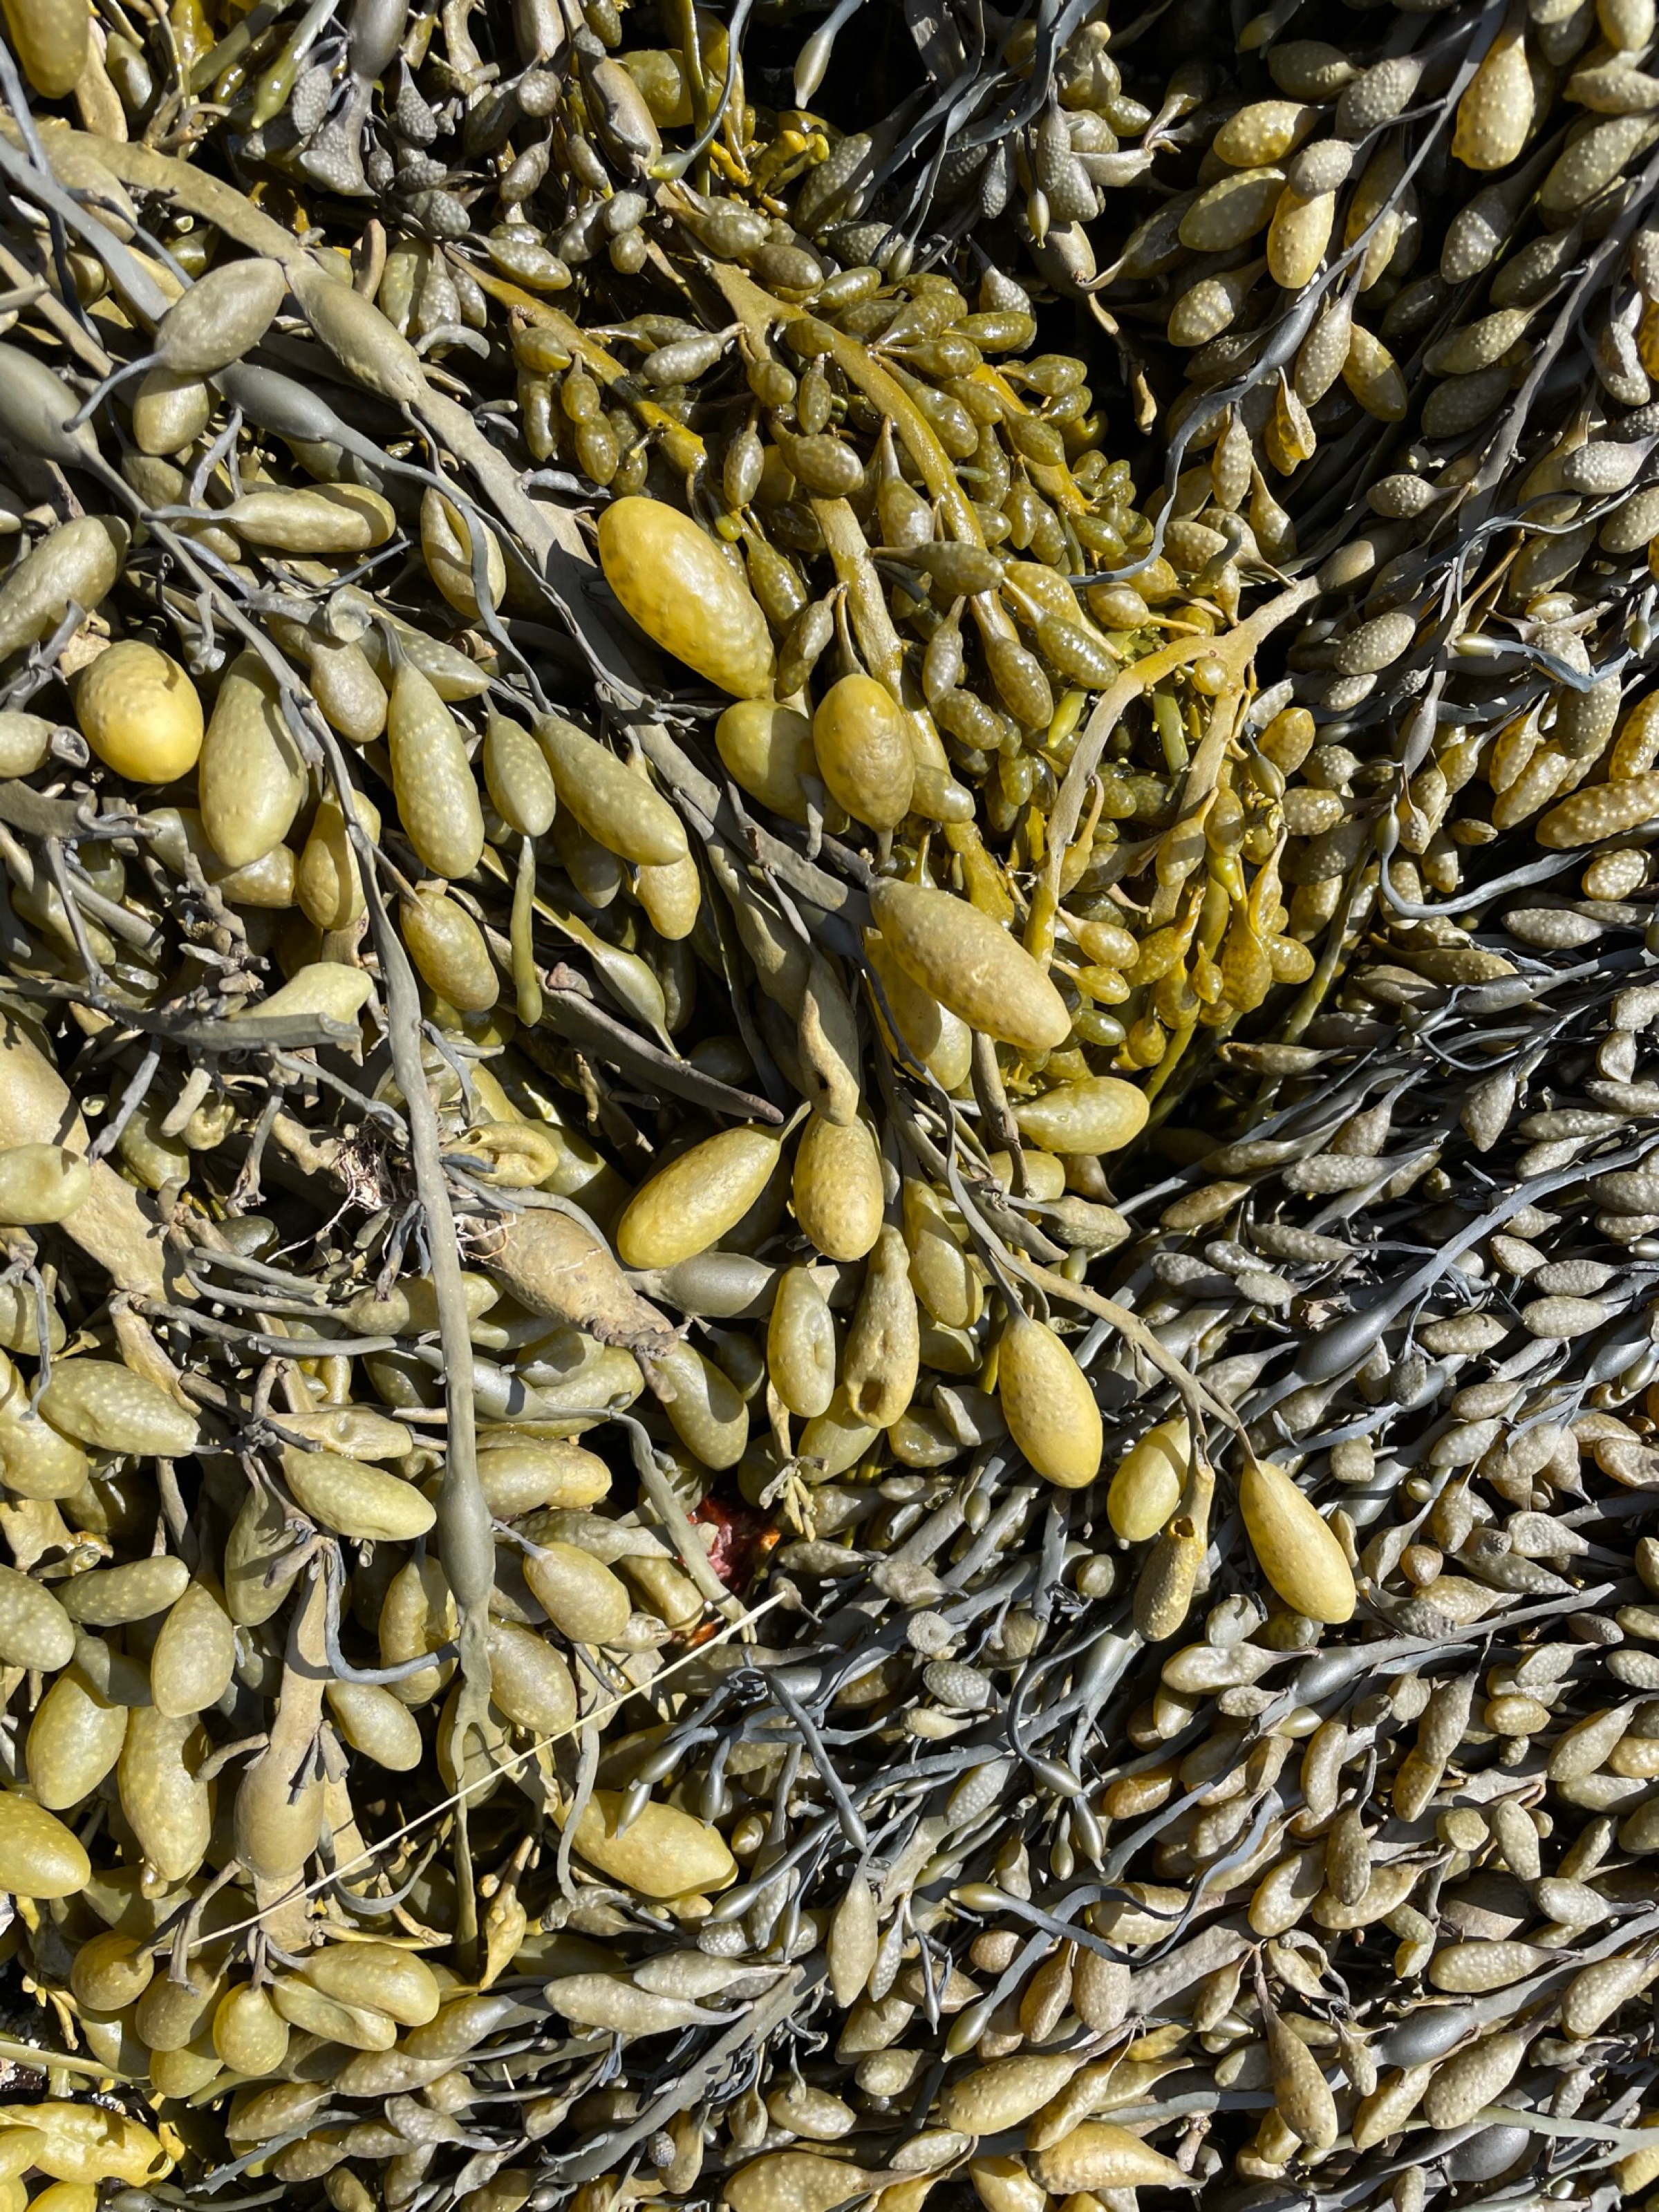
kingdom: Chromista
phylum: Ochrophyta
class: Phaeophyceae
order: Fucales
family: Fucaceae
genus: Ascophyllum
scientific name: Ascophyllum nodosum
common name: Rockweed
